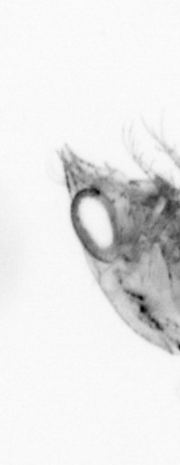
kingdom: Animalia
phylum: Arthropoda
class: Malacostraca
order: Decapoda
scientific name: Decapoda
